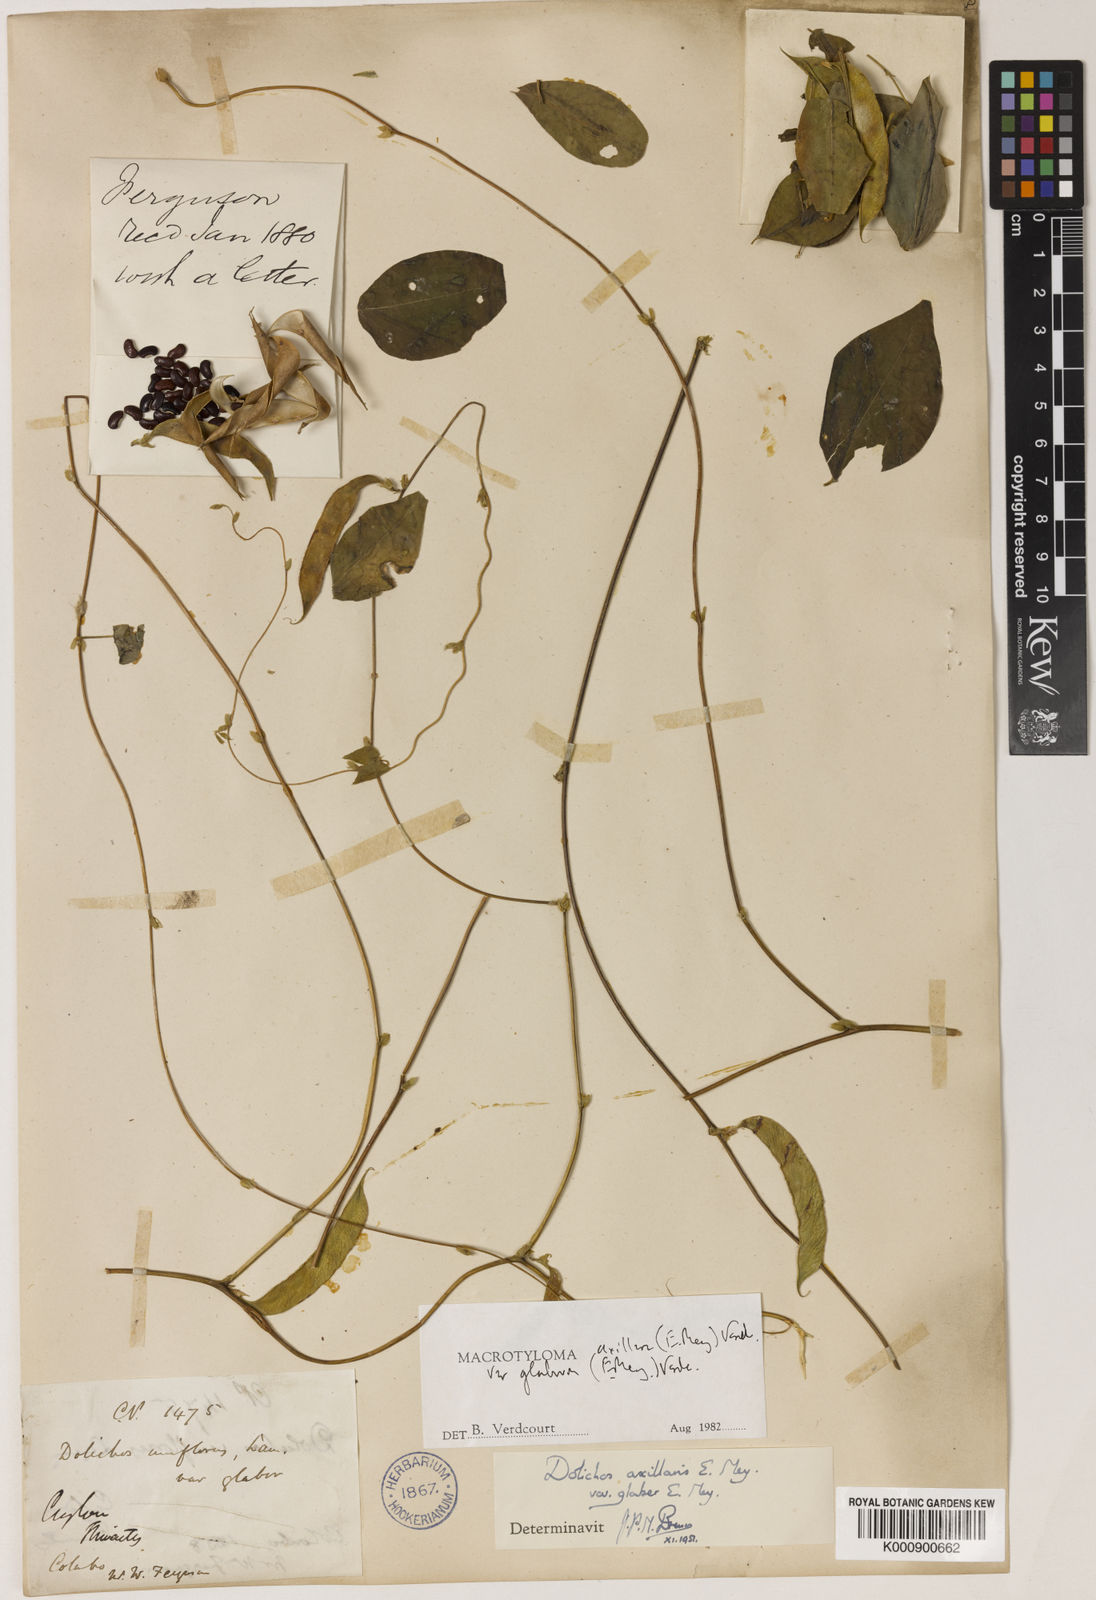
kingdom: Plantae
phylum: Tracheophyta
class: Magnoliopsida
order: Fabales
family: Fabaceae
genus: Macrotyloma
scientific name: Macrotyloma axillare
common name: Perennial horsegram
